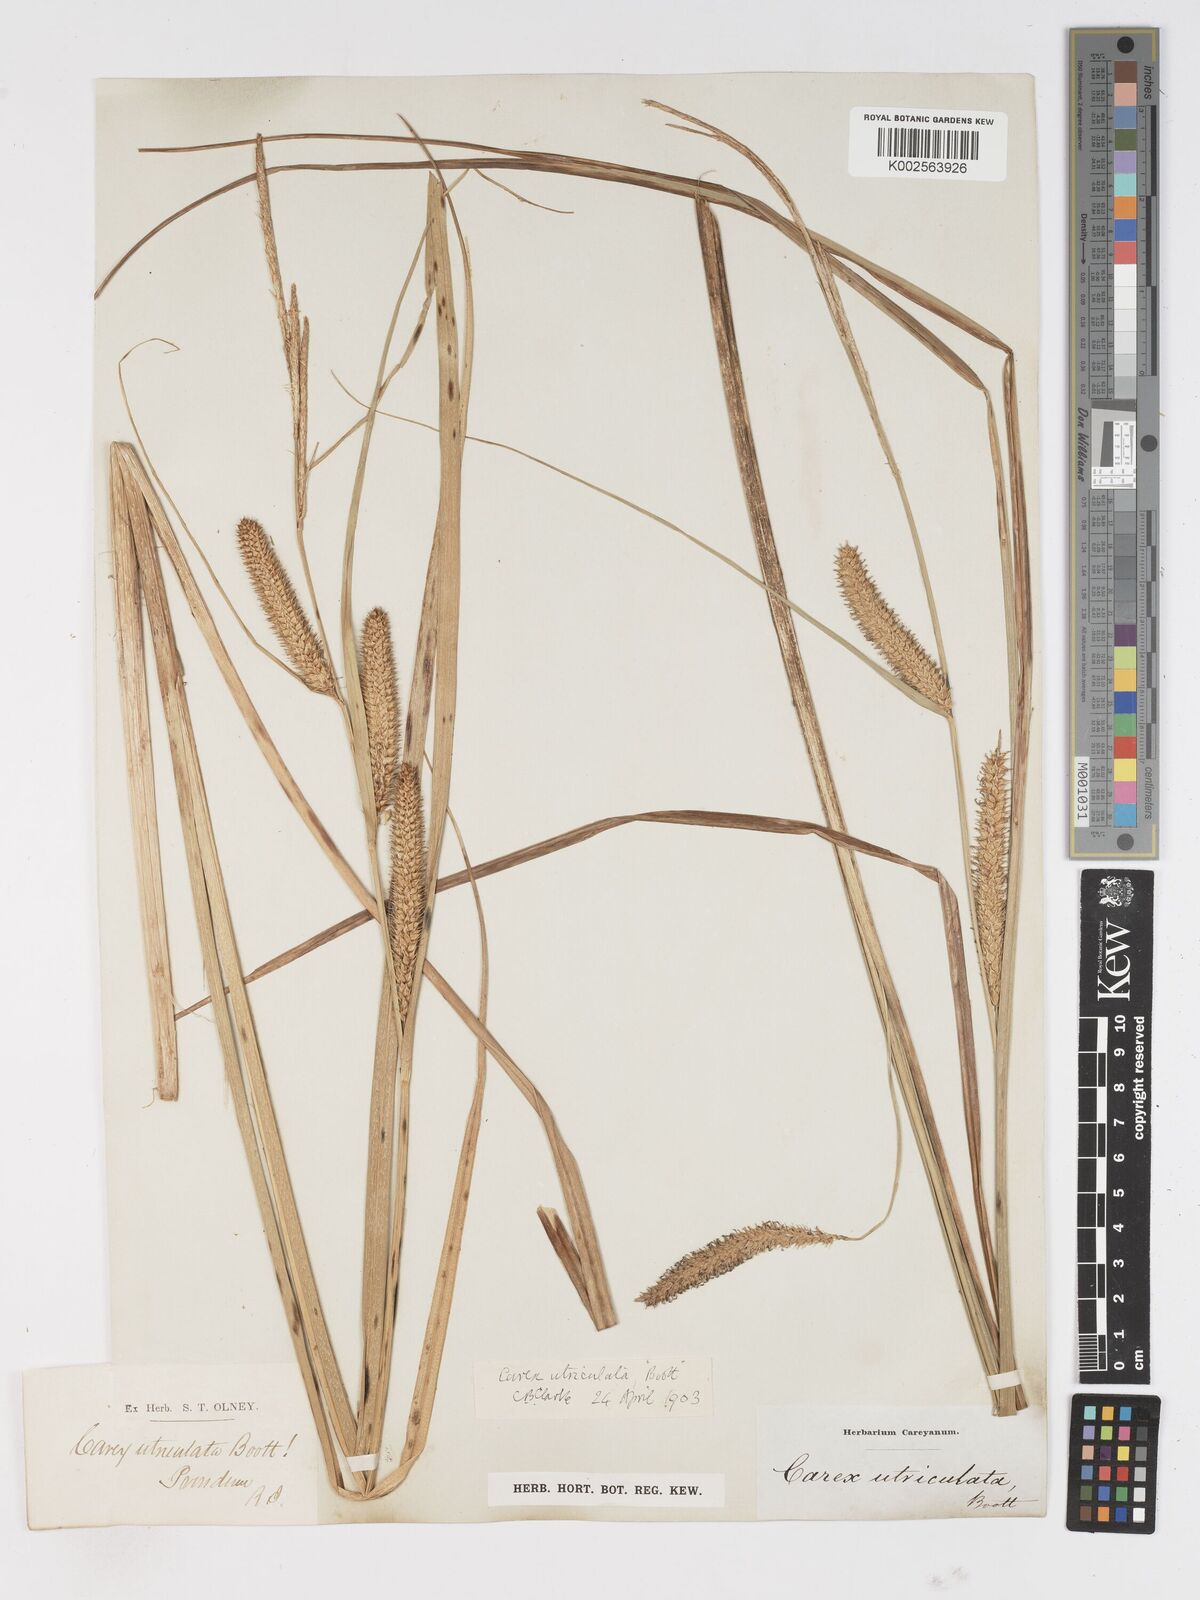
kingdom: Plantae
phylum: Tracheophyta
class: Liliopsida
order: Poales
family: Cyperaceae
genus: Carex
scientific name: Carex rostrata
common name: Bottle sedge
